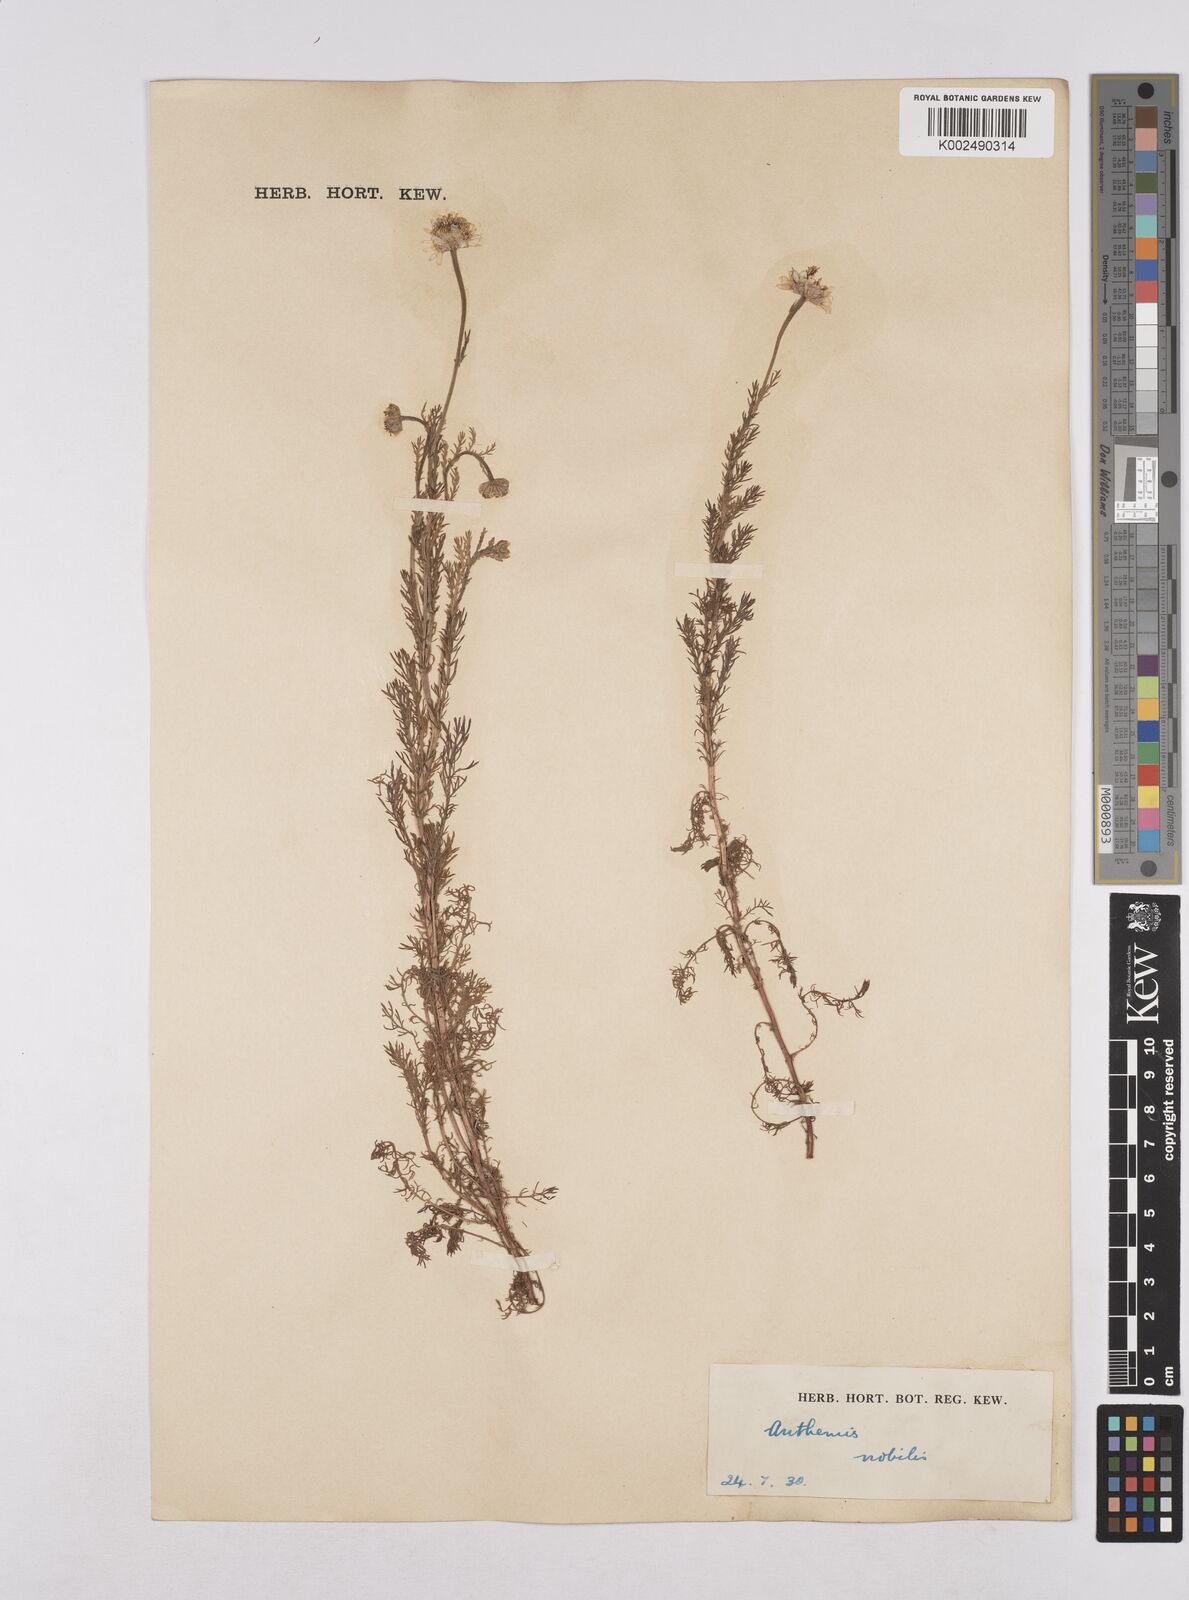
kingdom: Plantae
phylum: Tracheophyta
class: Magnoliopsida
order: Asterales
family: Asteraceae
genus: Chamaemelum
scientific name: Chamaemelum nobile
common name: Roman chamomile
